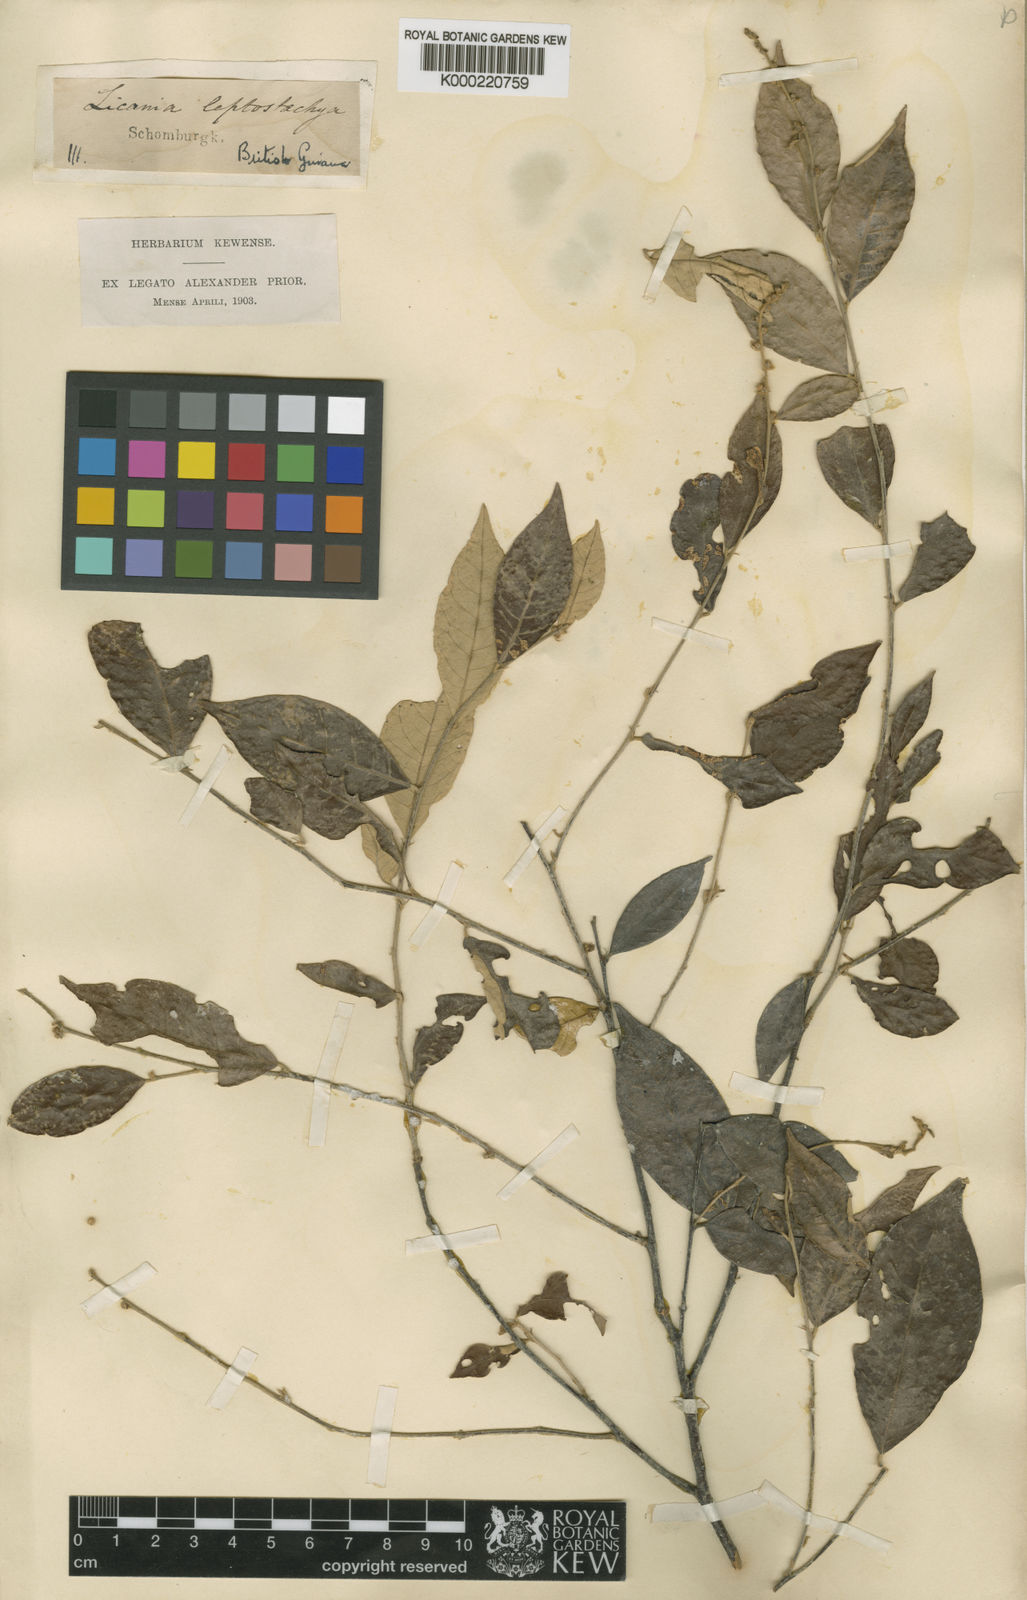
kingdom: Plantae
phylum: Tracheophyta
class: Magnoliopsida
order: Malpighiales
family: Chrysobalanaceae
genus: Licania
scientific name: Licania leptostachya
